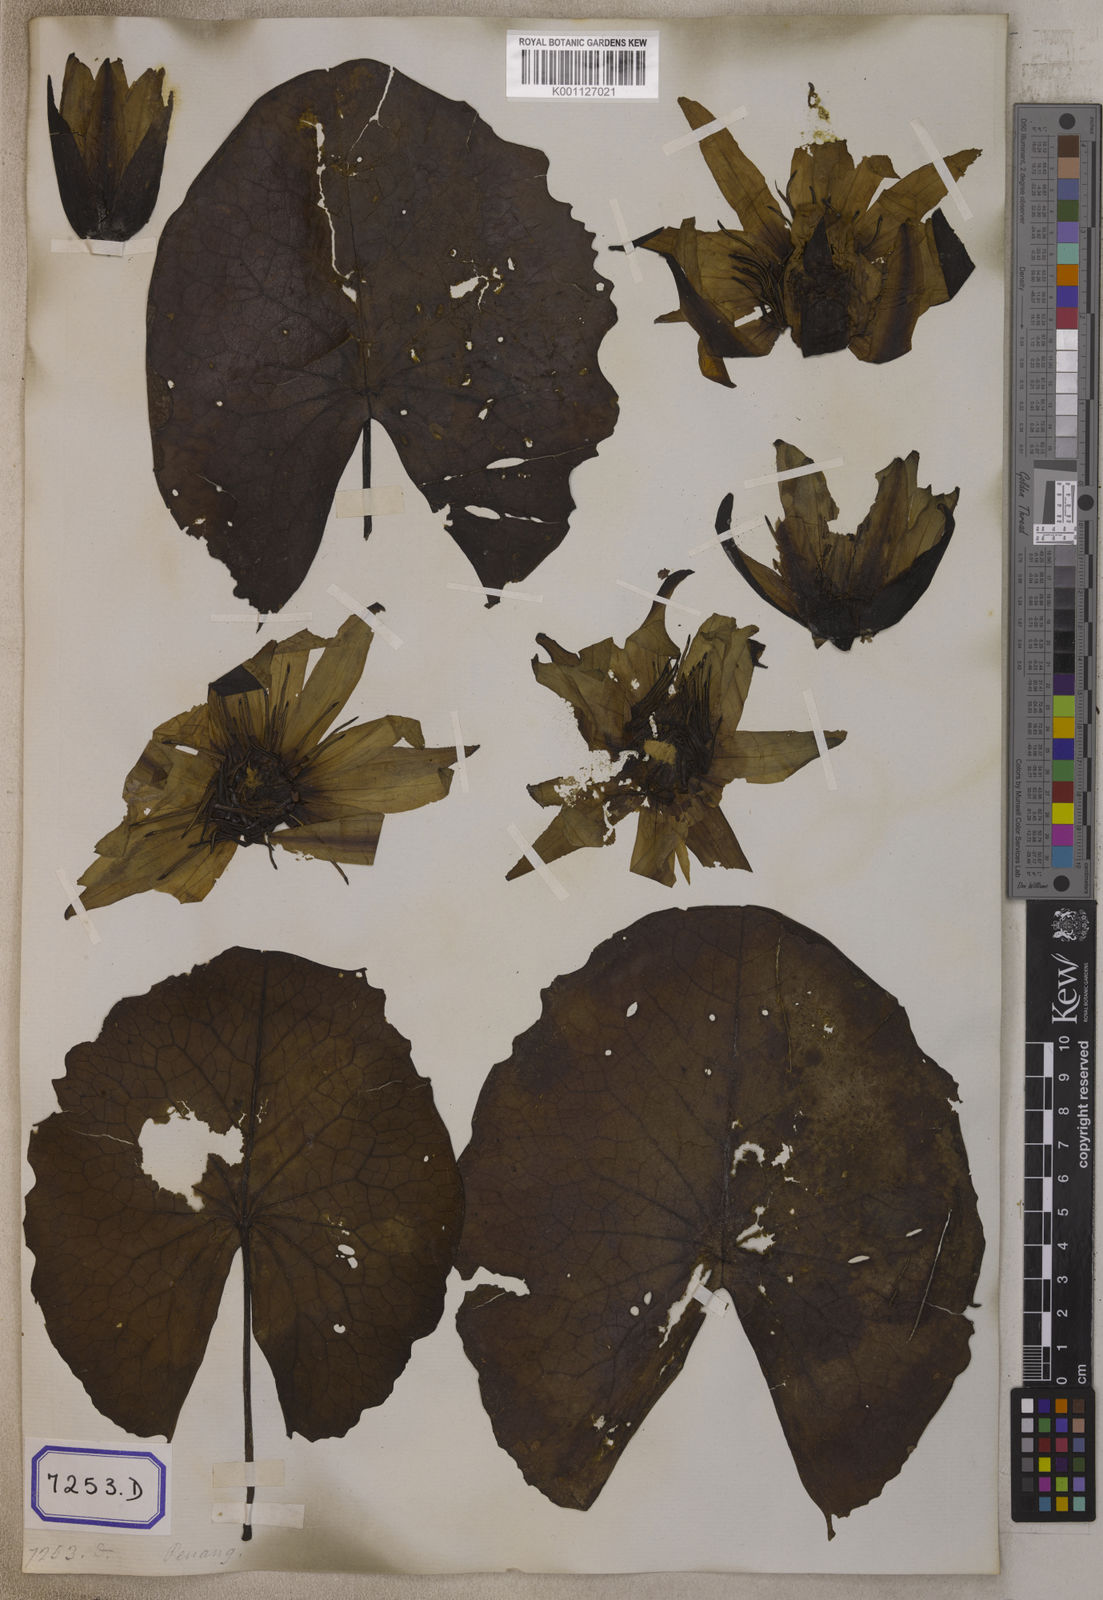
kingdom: Plantae
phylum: Tracheophyta
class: Magnoliopsida
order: Nymphaeales
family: Nymphaeaceae
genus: Nymphaea
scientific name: Nymphaea nouchali
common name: Blue lotus
